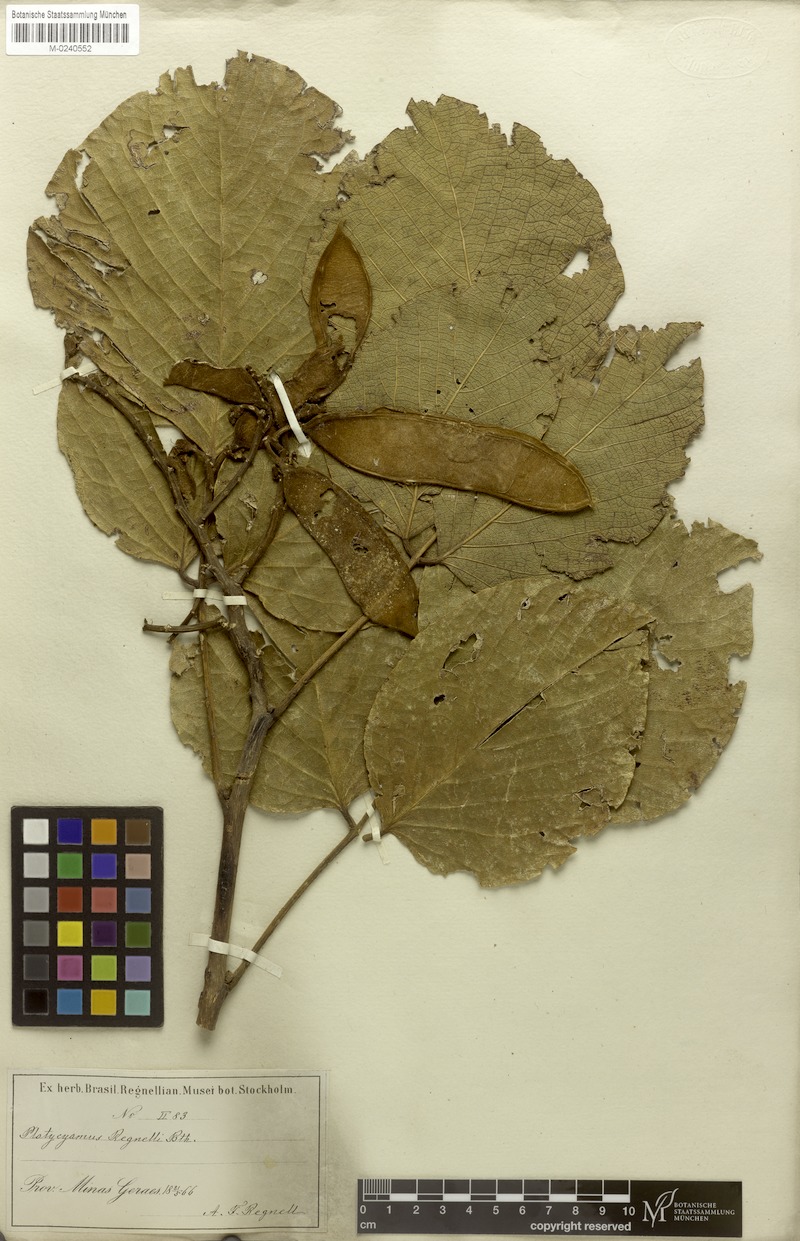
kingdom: Plantae
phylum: Tracheophyta
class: Magnoliopsida
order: Fabales
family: Fabaceae
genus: Platycyamus
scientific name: Platycyamus regnellii
